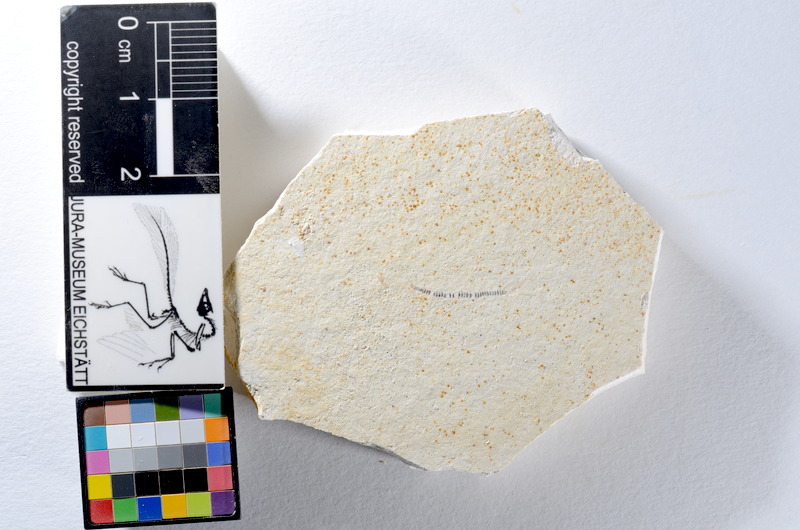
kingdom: Animalia
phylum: Chordata
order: Salmoniformes
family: Orthogonikleithridae
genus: Orthogonikleithrus
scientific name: Orthogonikleithrus hoelli
